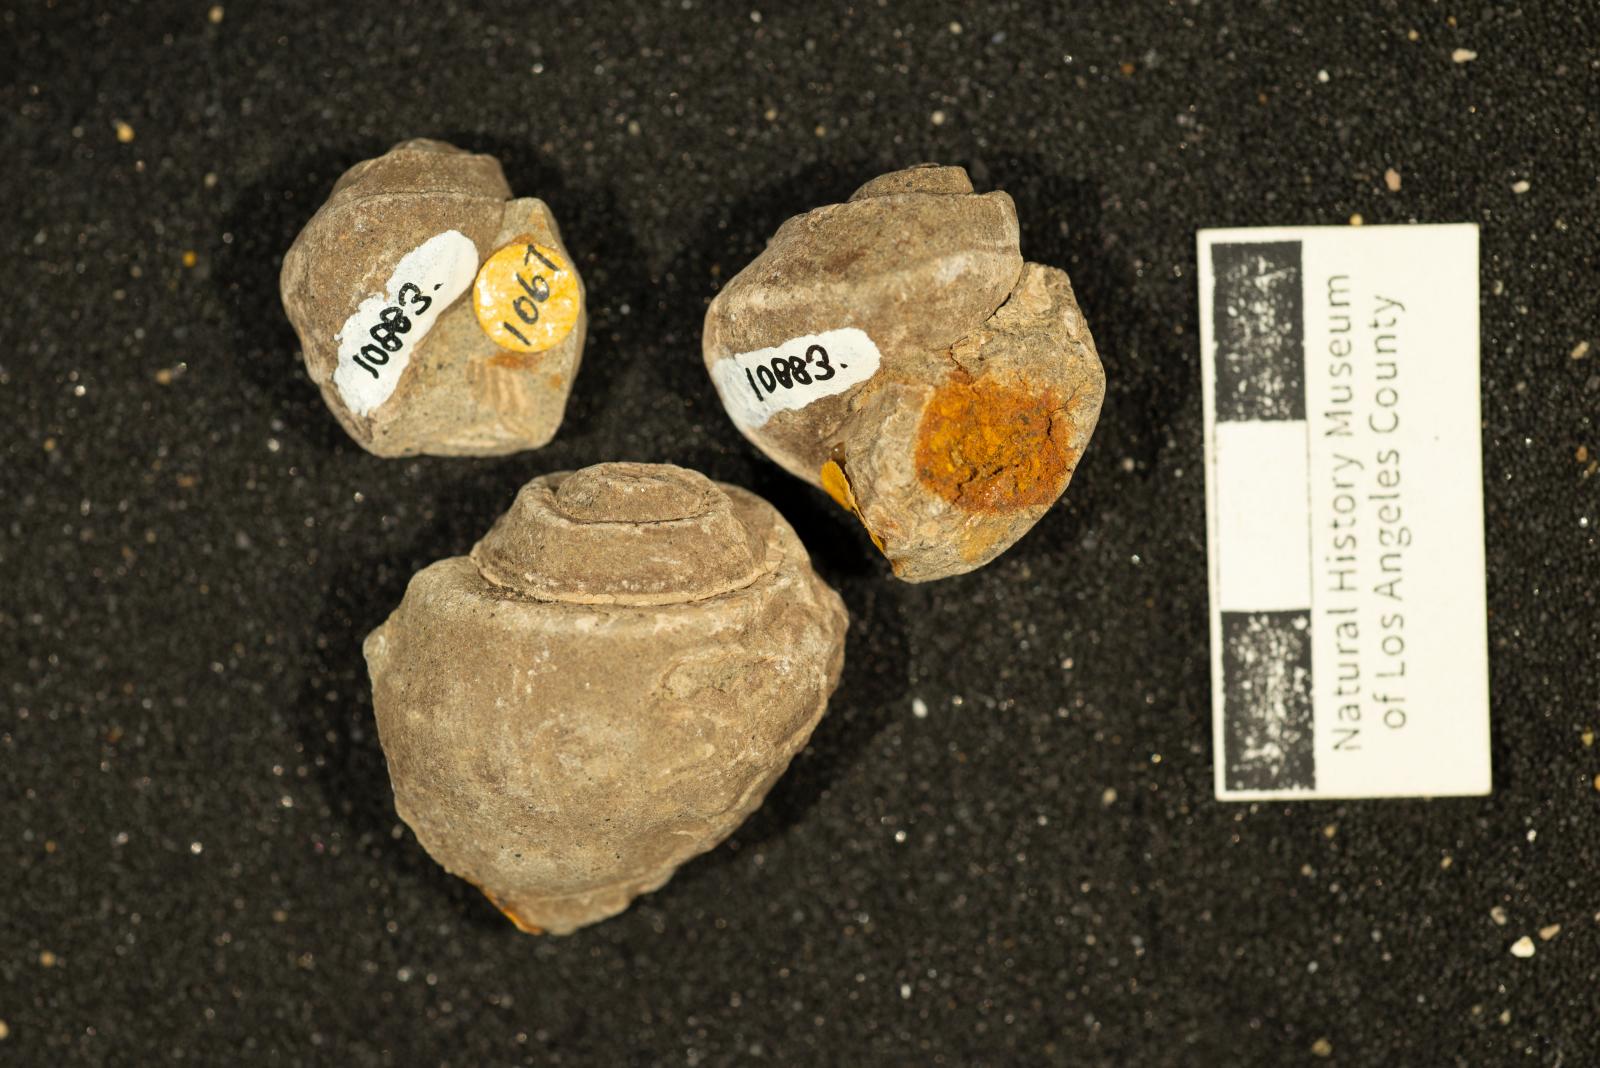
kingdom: Animalia
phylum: Mollusca
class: Gastropoda
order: Architaenioglossa
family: Ampullinidae
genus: Ampullina
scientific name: Ampullina Amauropsis pseudoalveata
